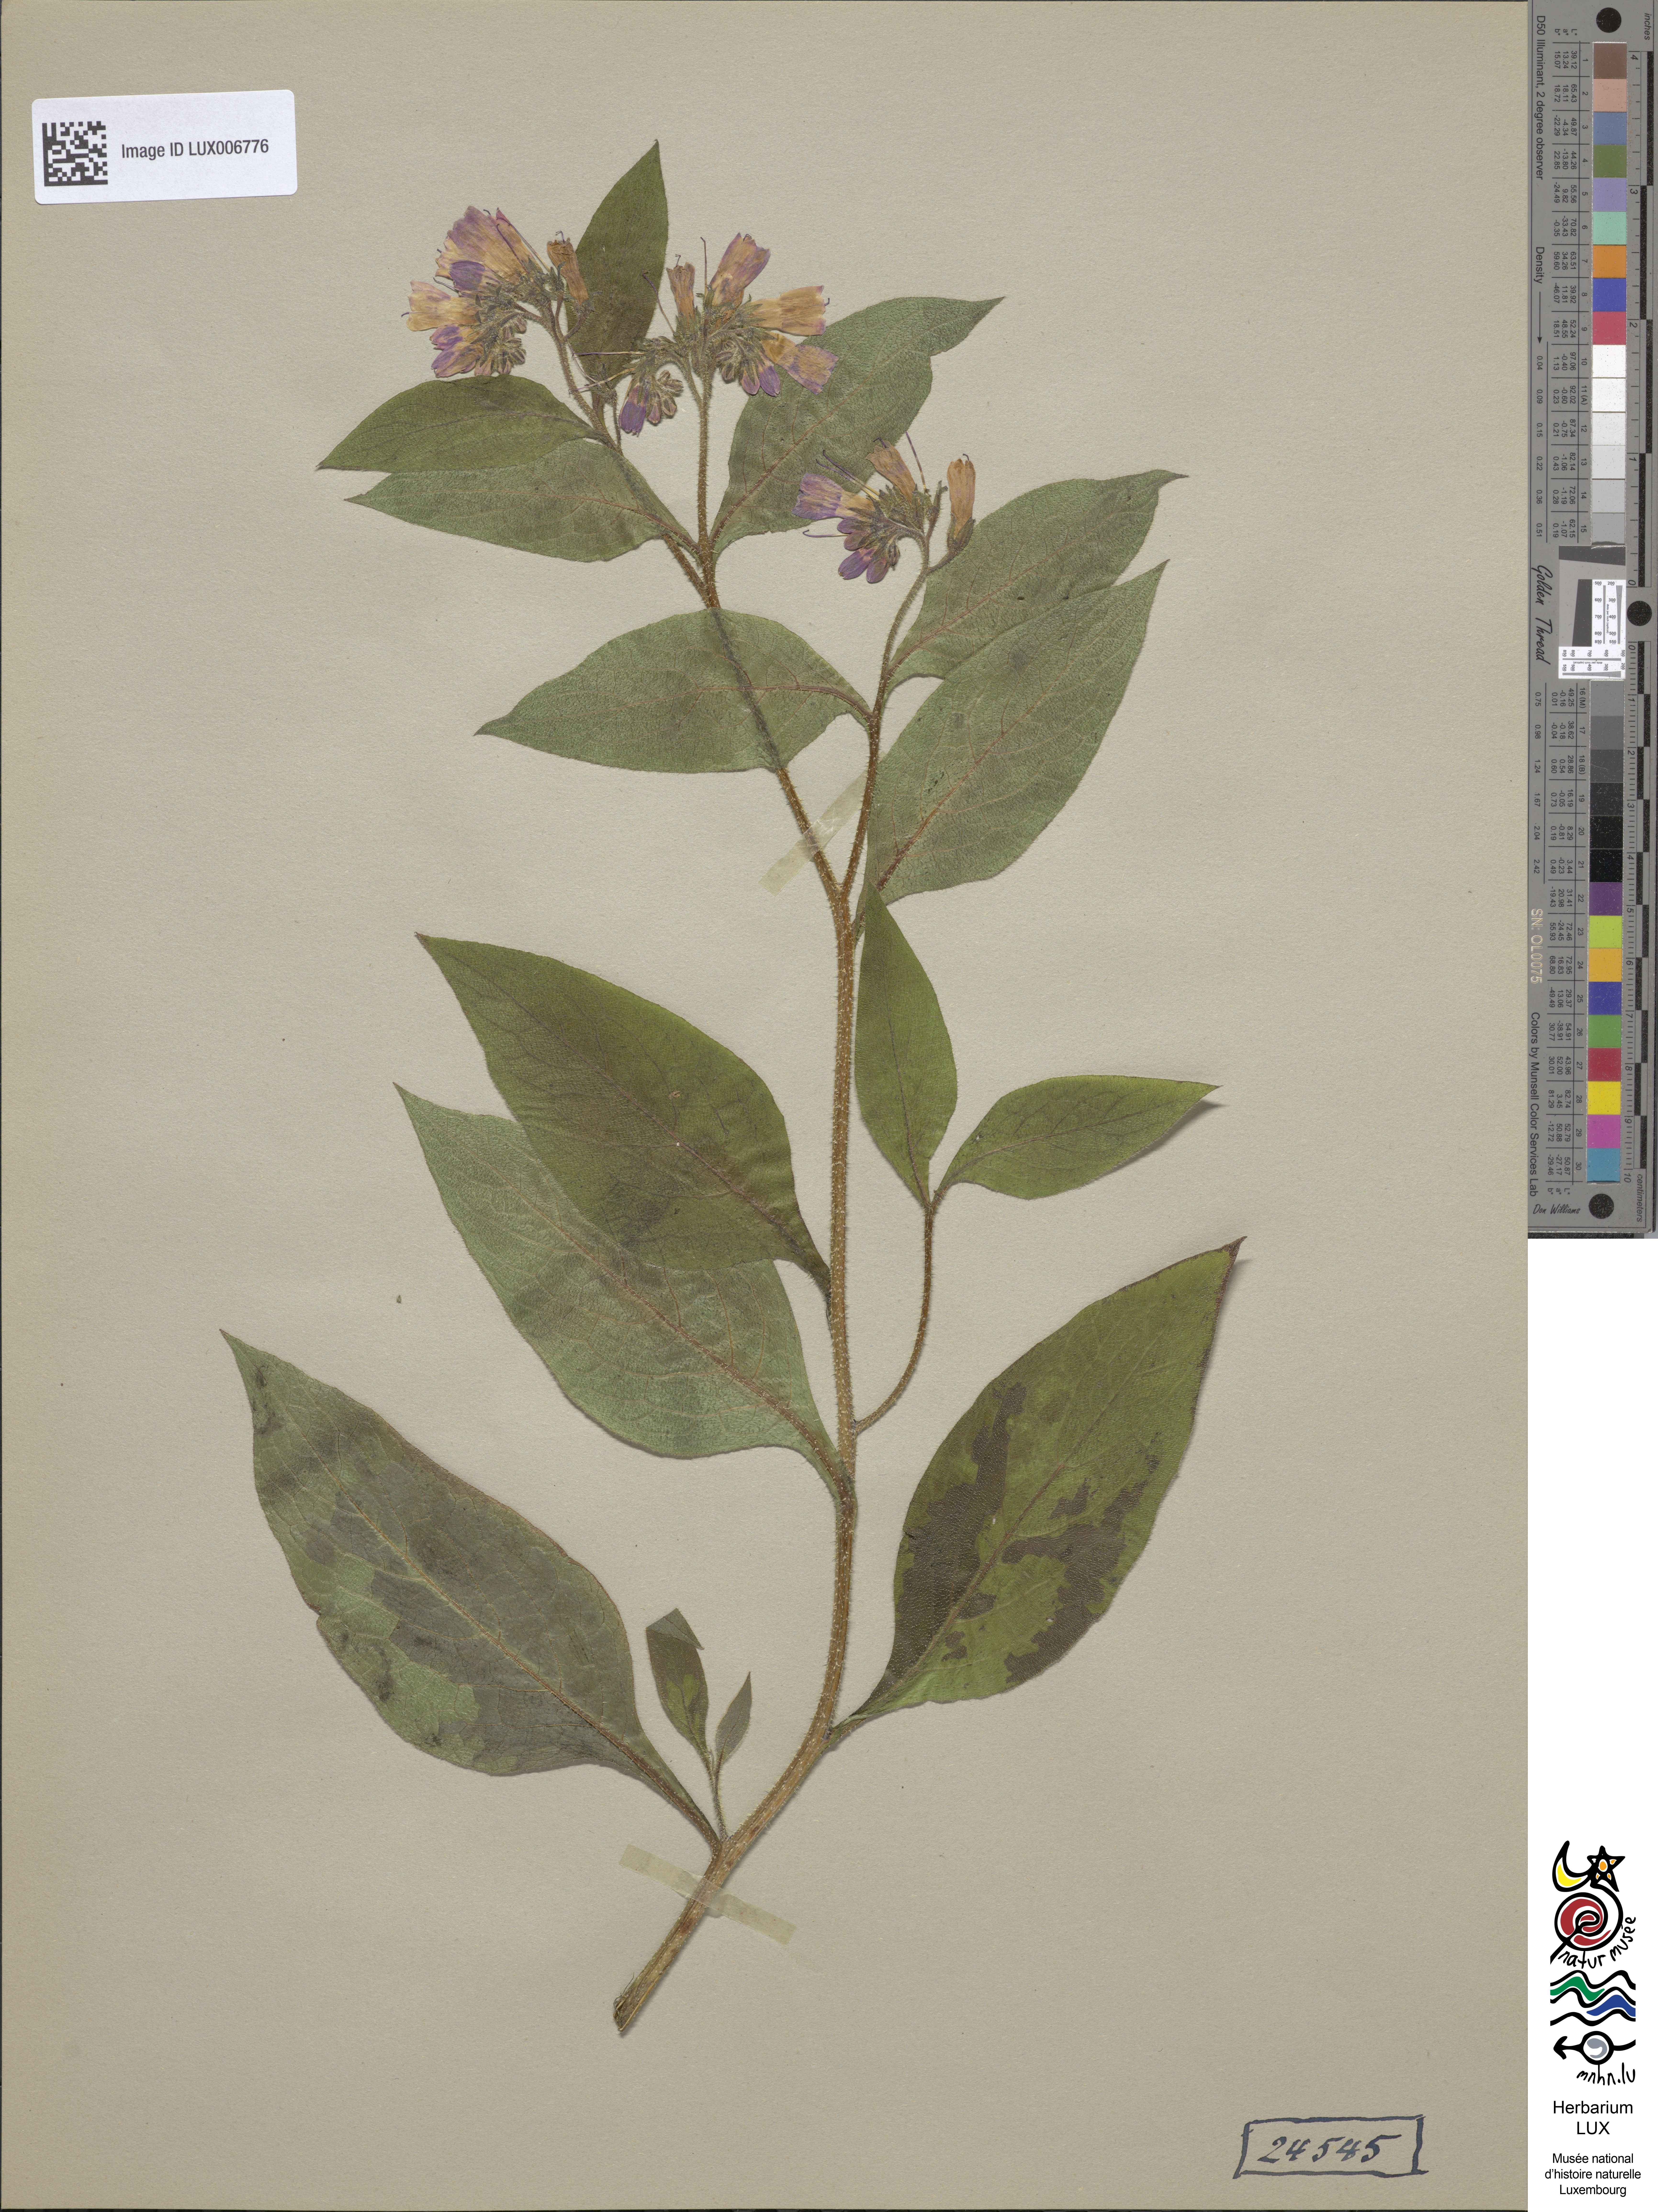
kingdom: Plantae
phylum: Tracheophyta
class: Magnoliopsida
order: Boraginales
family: Boraginaceae
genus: Symphytum
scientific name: Symphytum officinale
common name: Common comfrey
